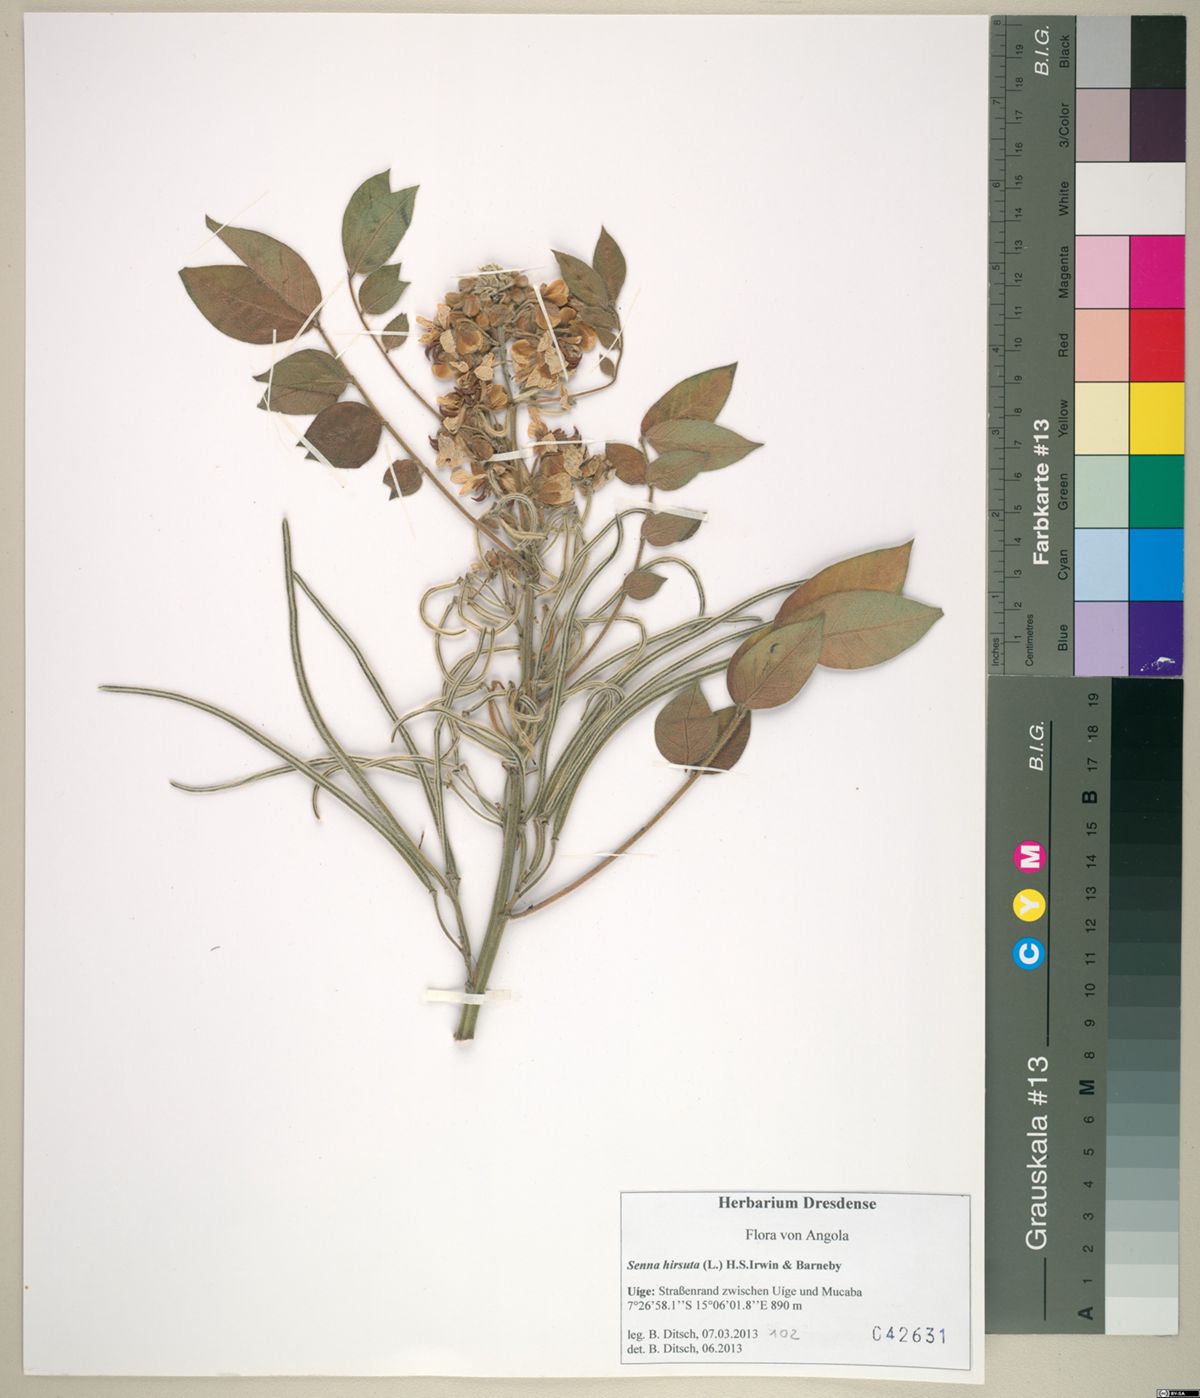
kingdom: Plantae
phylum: Tracheophyta
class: Magnoliopsida
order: Fabales
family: Fabaceae
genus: Senna
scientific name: Senna hirsuta
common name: Woolly senna
